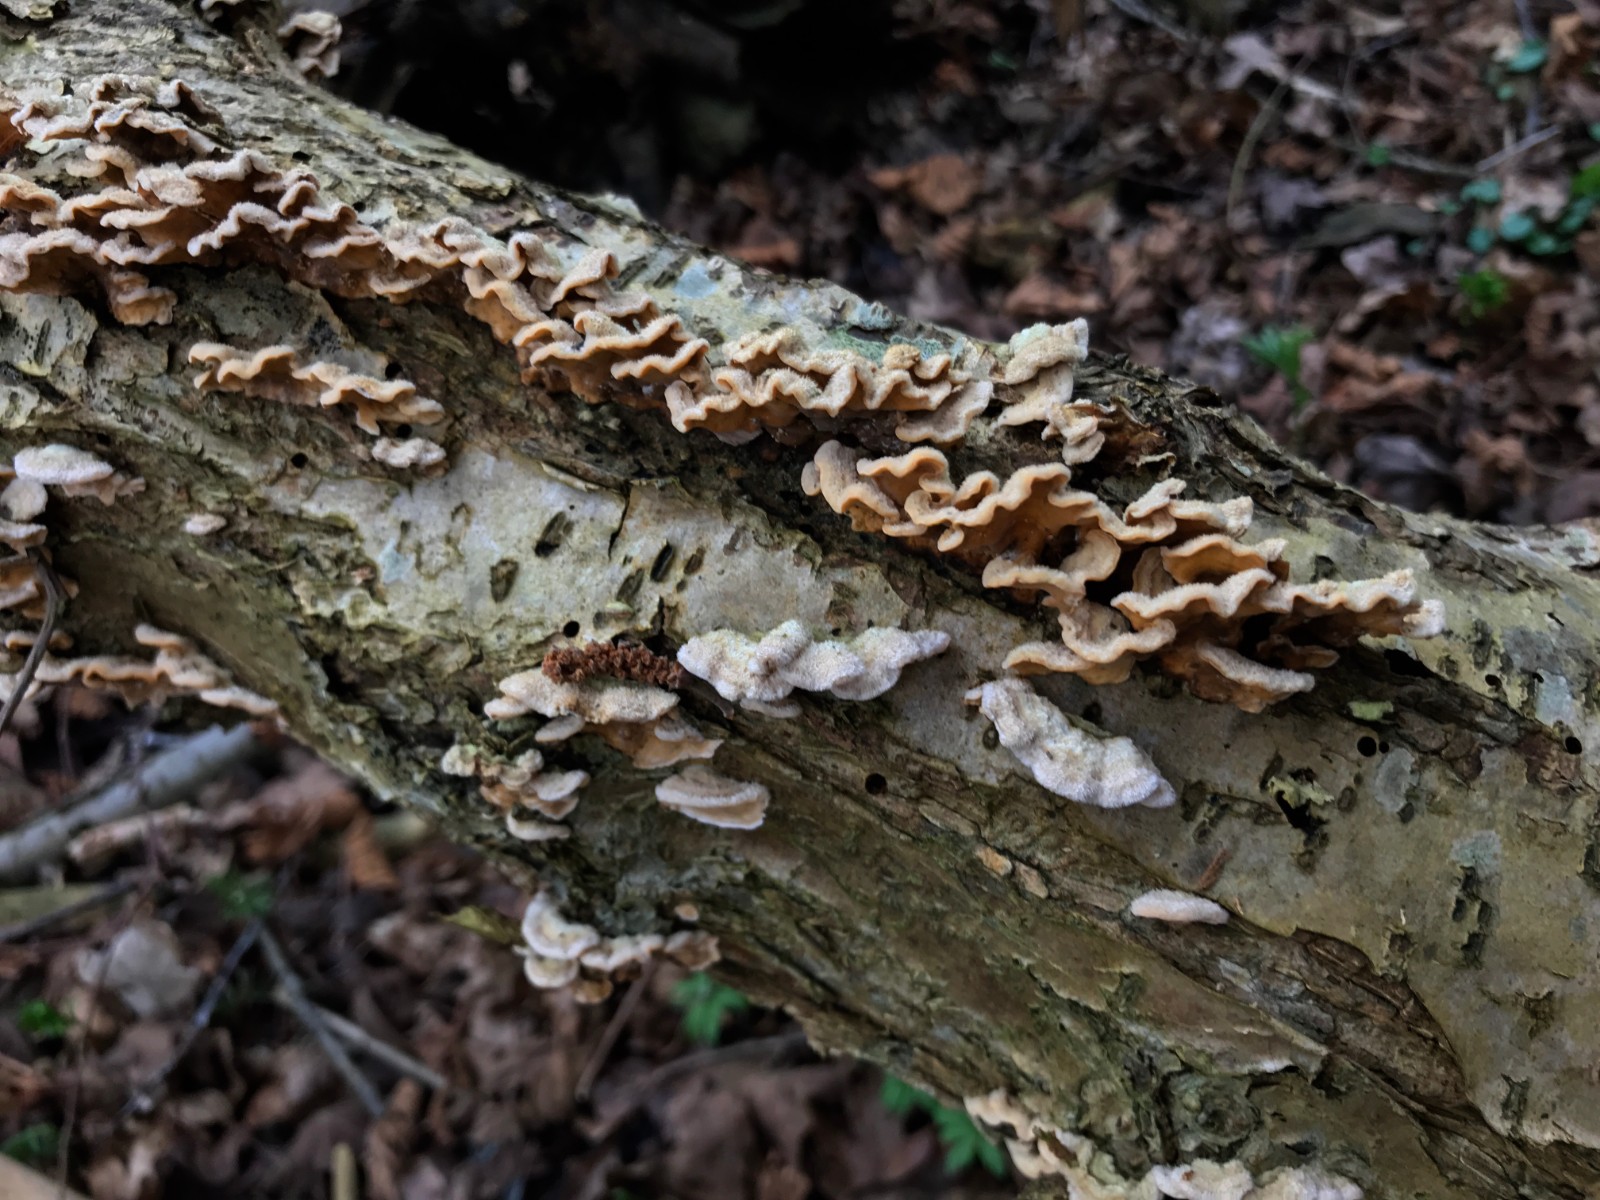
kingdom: Fungi
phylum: Basidiomycota
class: Agaricomycetes
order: Russulales
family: Stereaceae
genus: Stereum
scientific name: Stereum hirsutum
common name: håret lædersvamp
